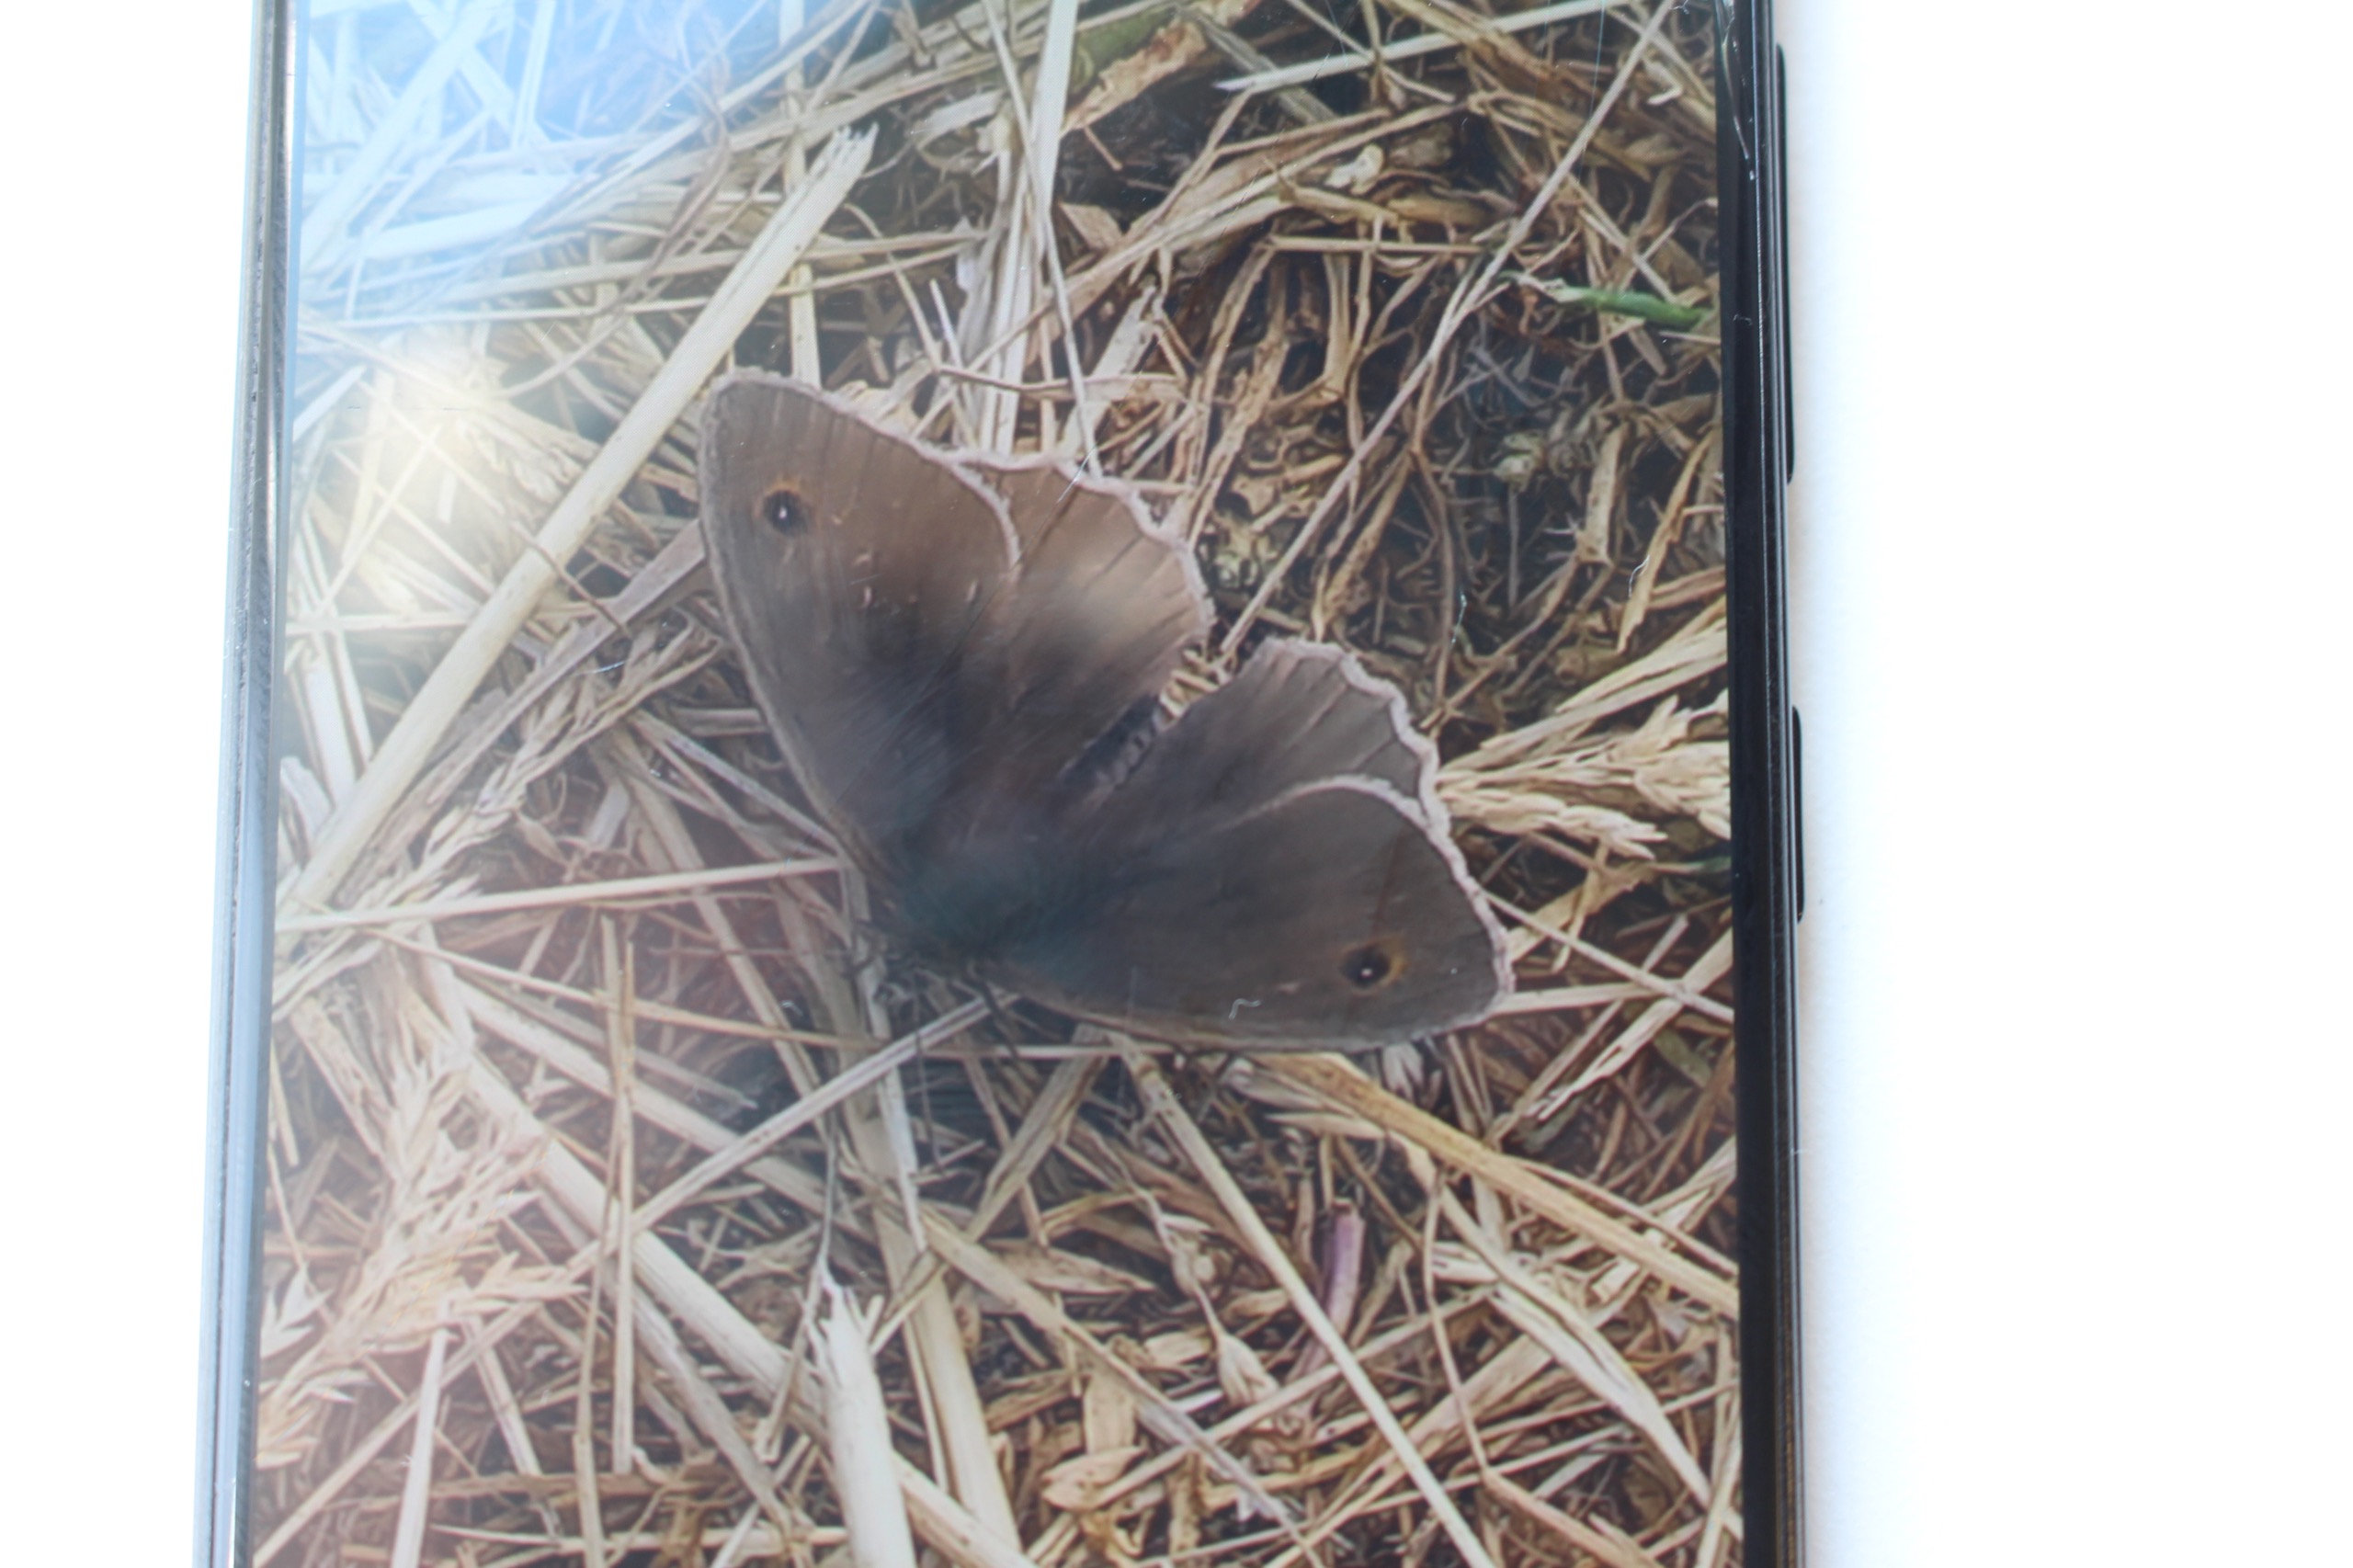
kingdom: Animalia
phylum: Arthropoda
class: Insecta
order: Lepidoptera
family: Nymphalidae
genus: Aphantopus
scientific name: Aphantopus hyperantus
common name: Engrandøje
